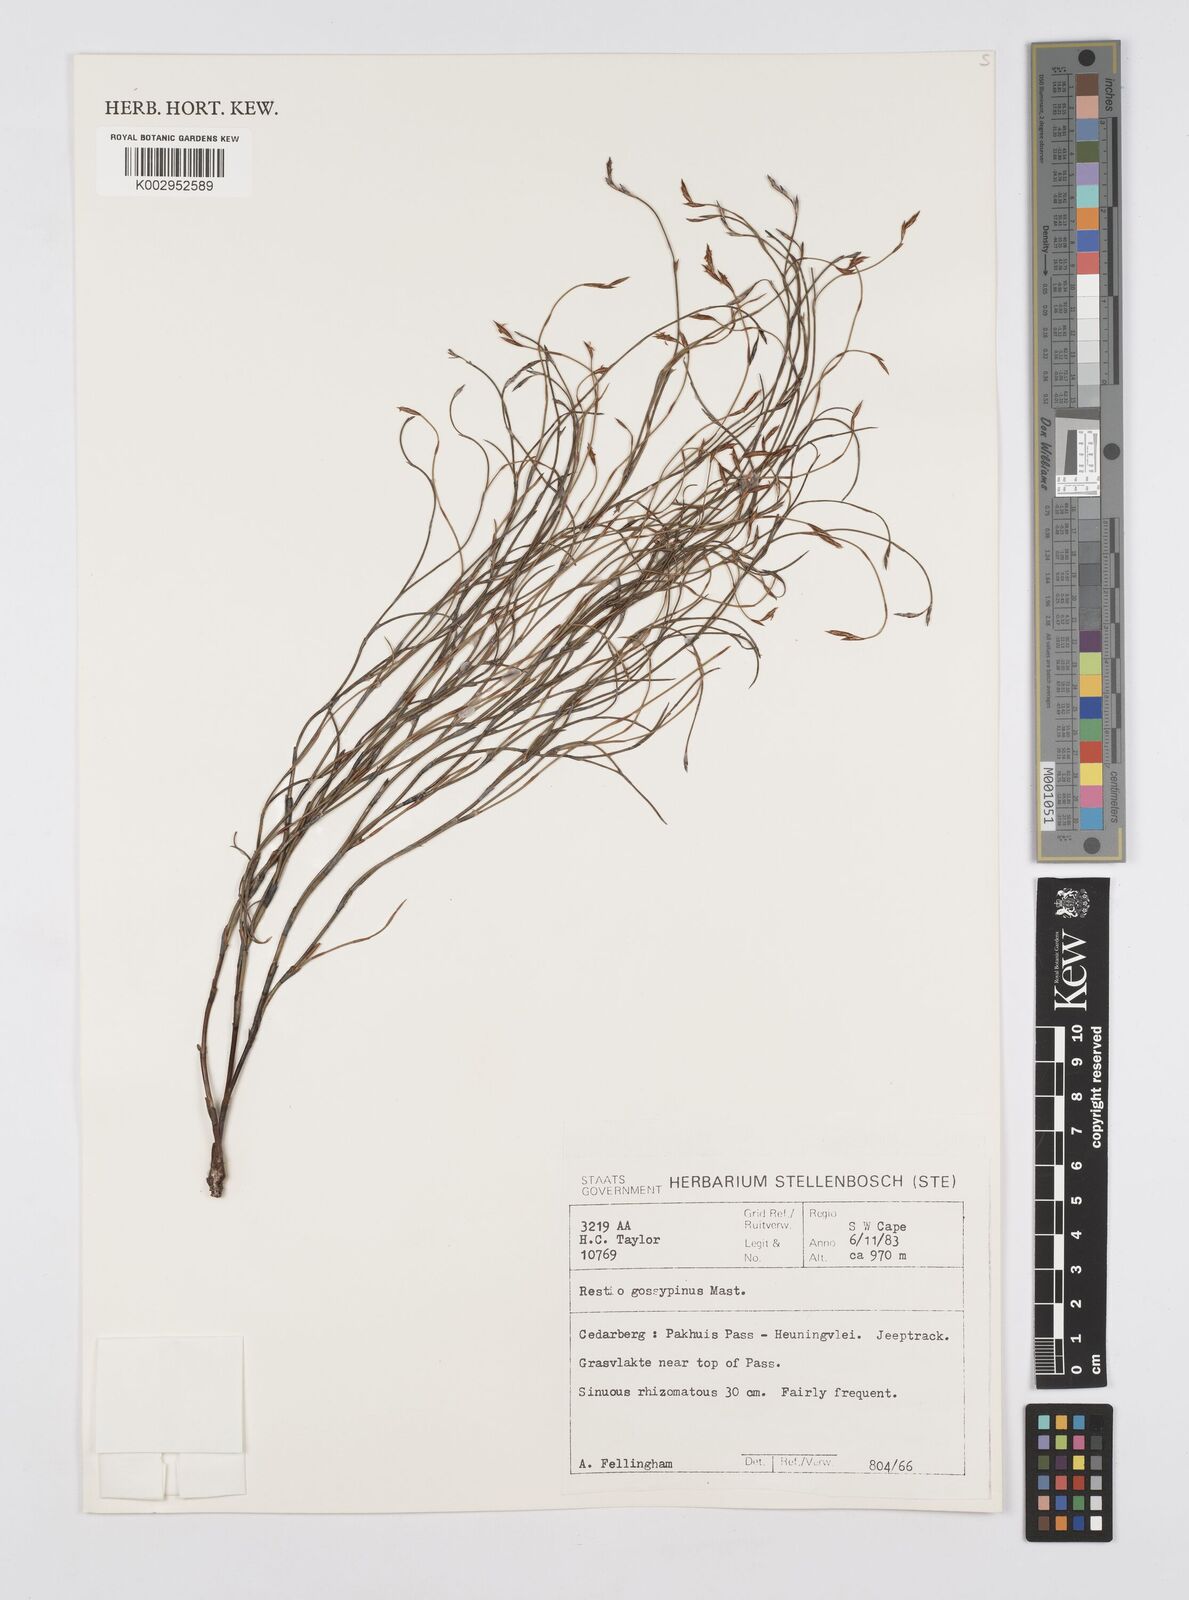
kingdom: Plantae
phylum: Tracheophyta
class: Liliopsida
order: Poales
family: Restionaceae
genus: Restio
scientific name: Restio gossypinus
